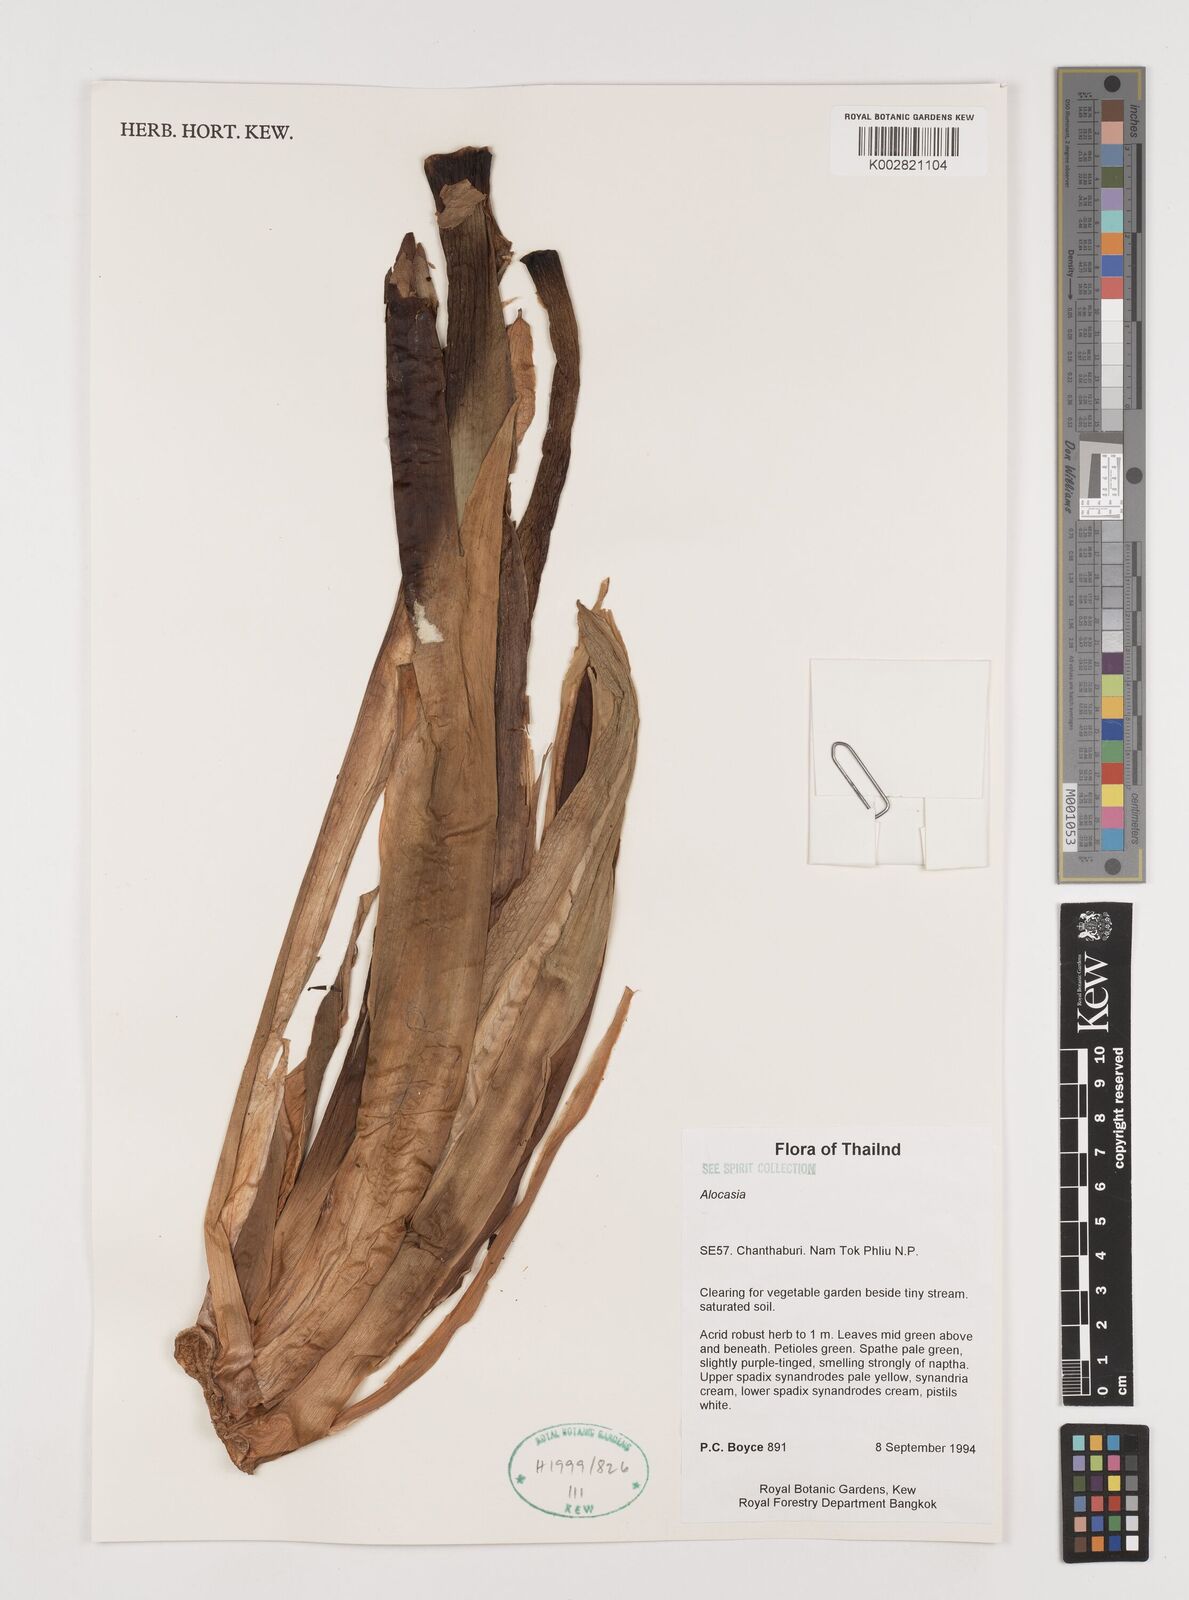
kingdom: Plantae
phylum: Tracheophyta
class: Liliopsida
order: Alismatales
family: Araceae
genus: Alocasia
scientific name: Alocasia
